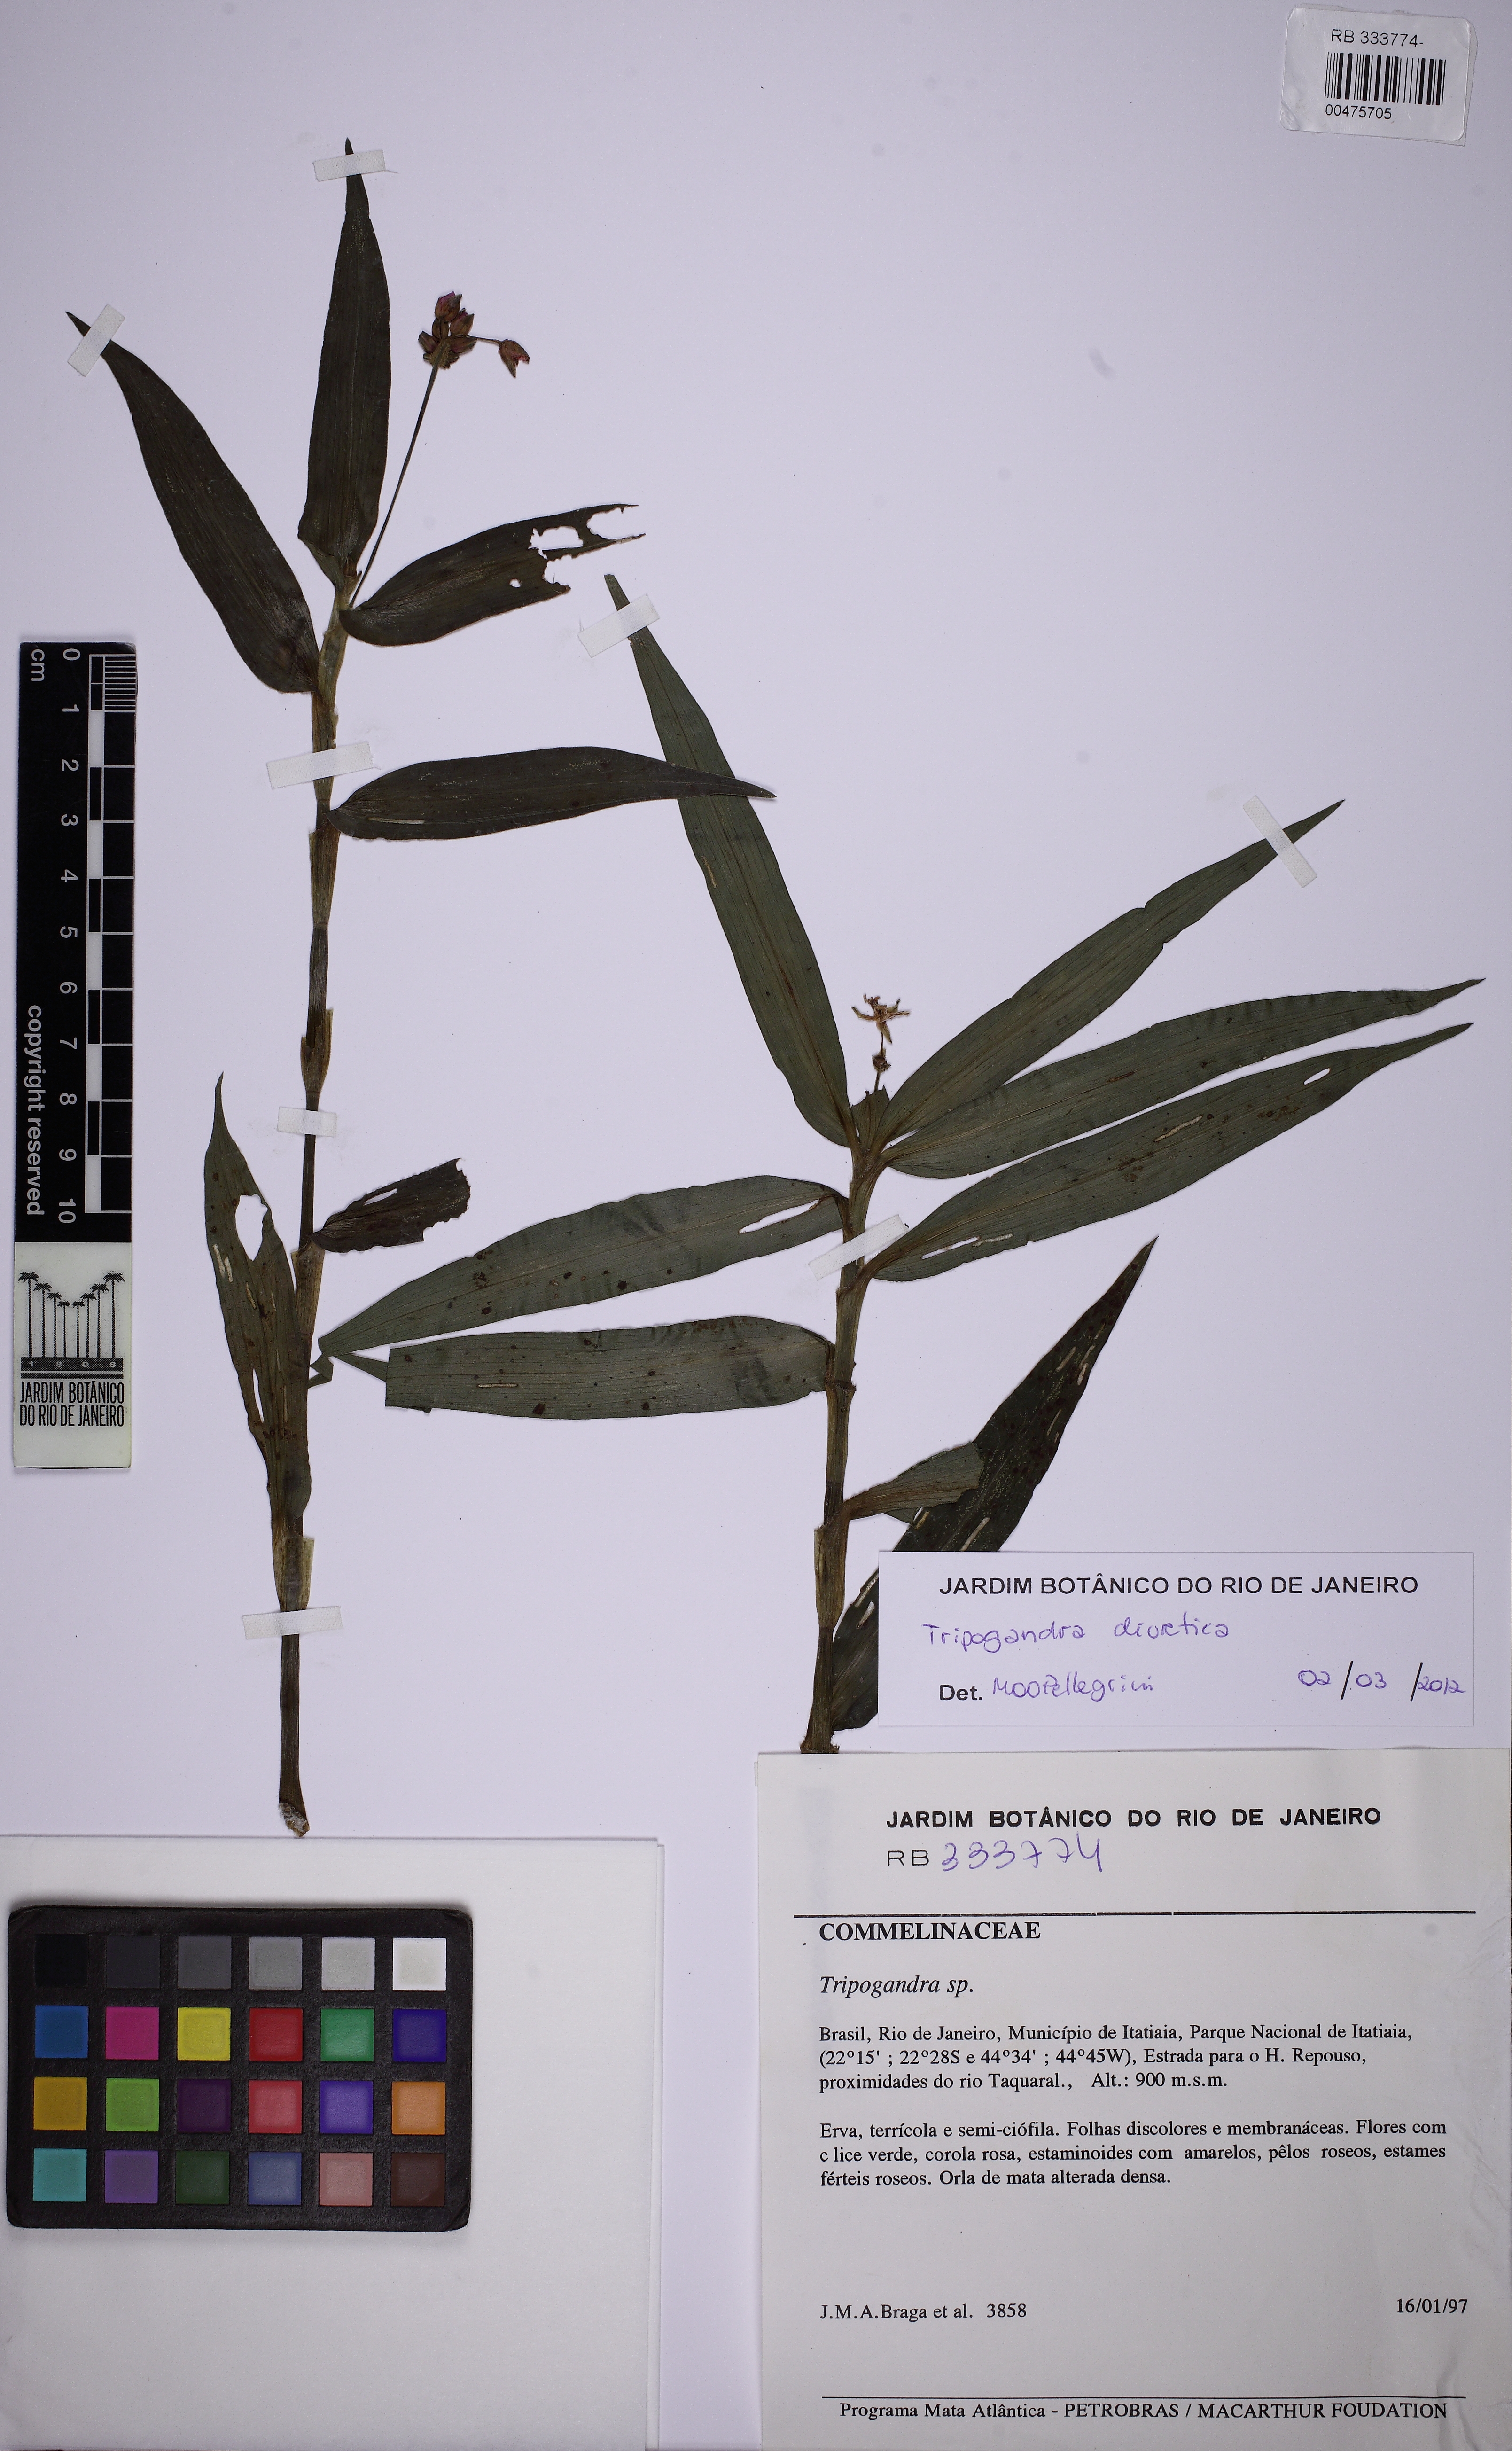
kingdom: Plantae
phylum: Tracheophyta
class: Liliopsida
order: Commelinales
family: Commelinaceae
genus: Callisia
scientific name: Callisia diuretica
